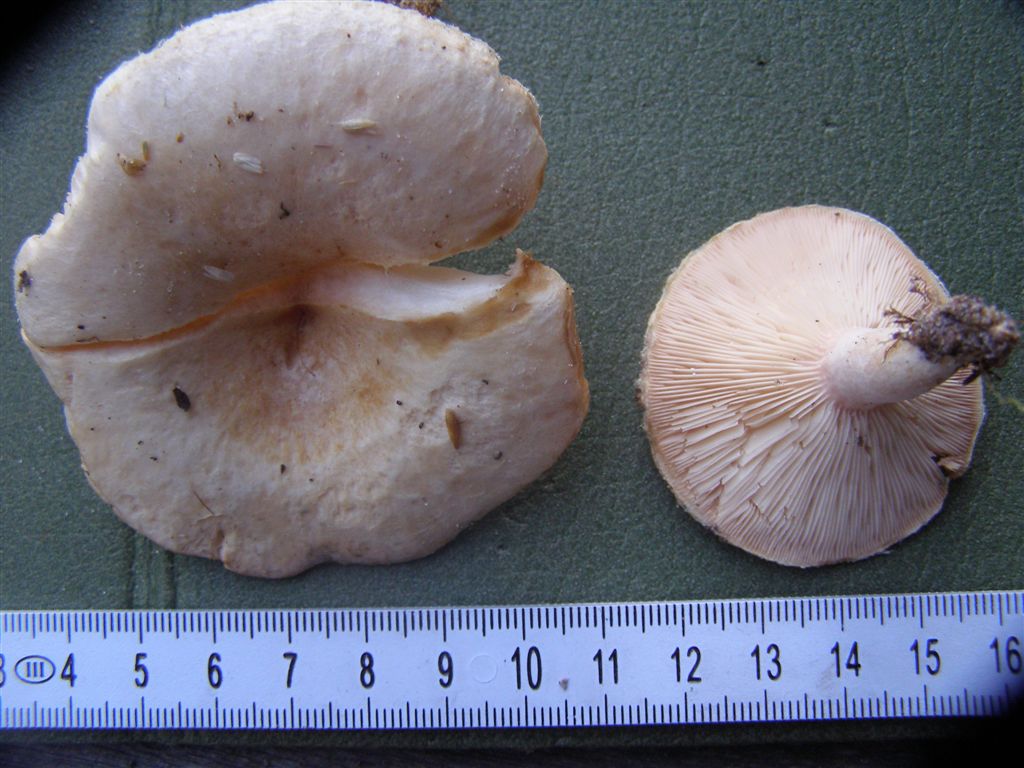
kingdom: Fungi
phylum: Basidiomycota
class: Agaricomycetes
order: Russulales
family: Russulaceae
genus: Lactarius
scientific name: Lactarius pubescens
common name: dunet mælkehat
